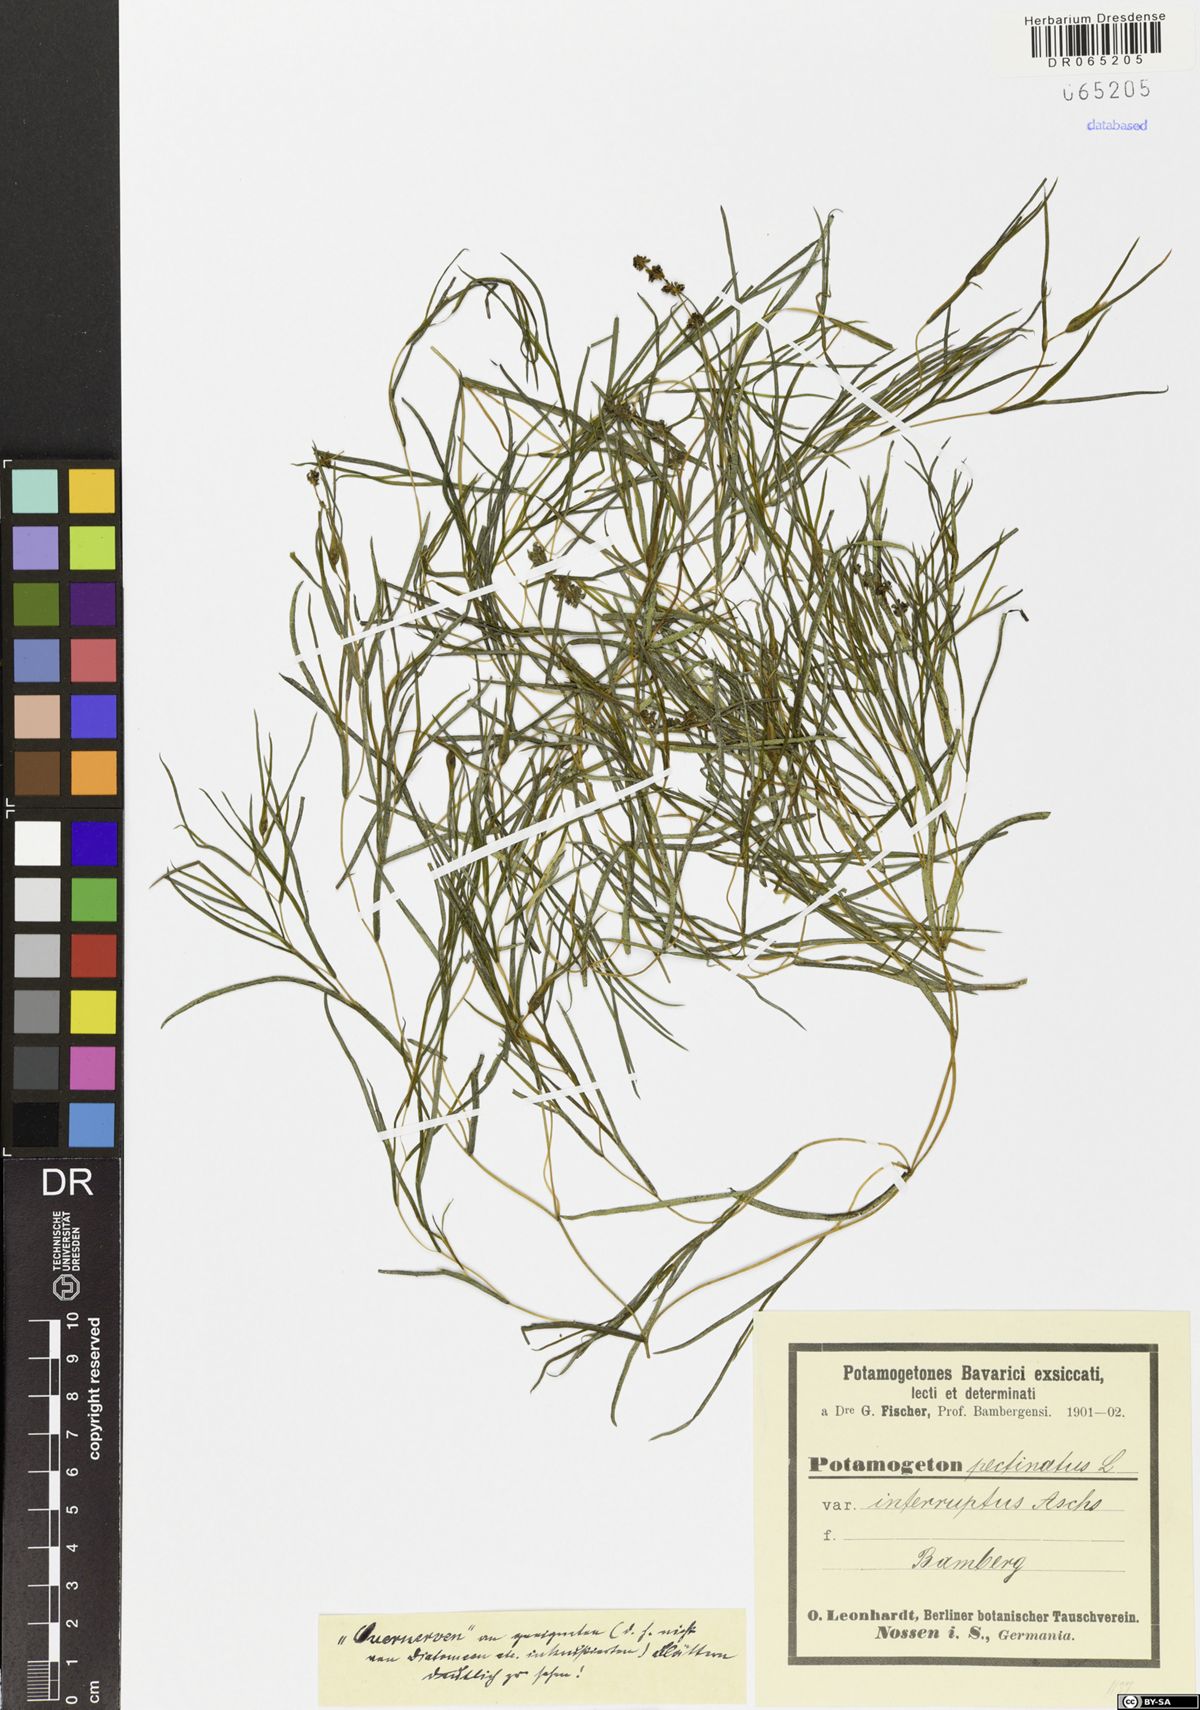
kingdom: Plantae
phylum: Tracheophyta
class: Liliopsida
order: Alismatales
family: Potamogetonaceae
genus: Stuckenia
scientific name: Stuckenia pectinata
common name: Sago pondweed
